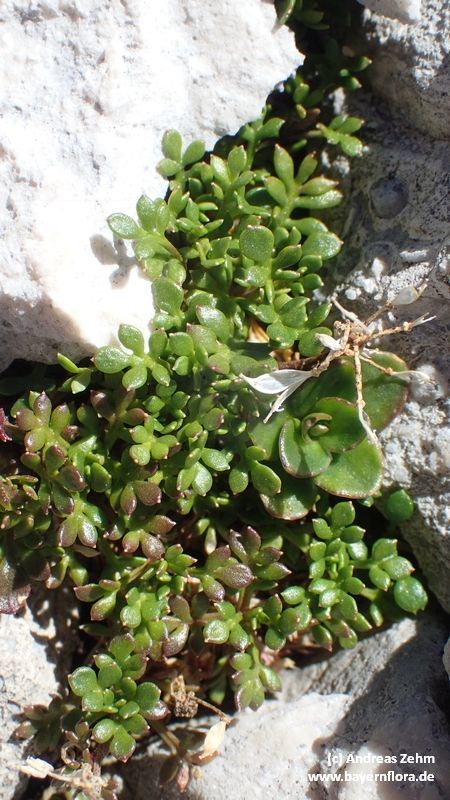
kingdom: Plantae
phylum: Tracheophyta
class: Magnoliopsida
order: Brassicales
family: Brassicaceae
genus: Hornungia
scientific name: Hornungia alpina
